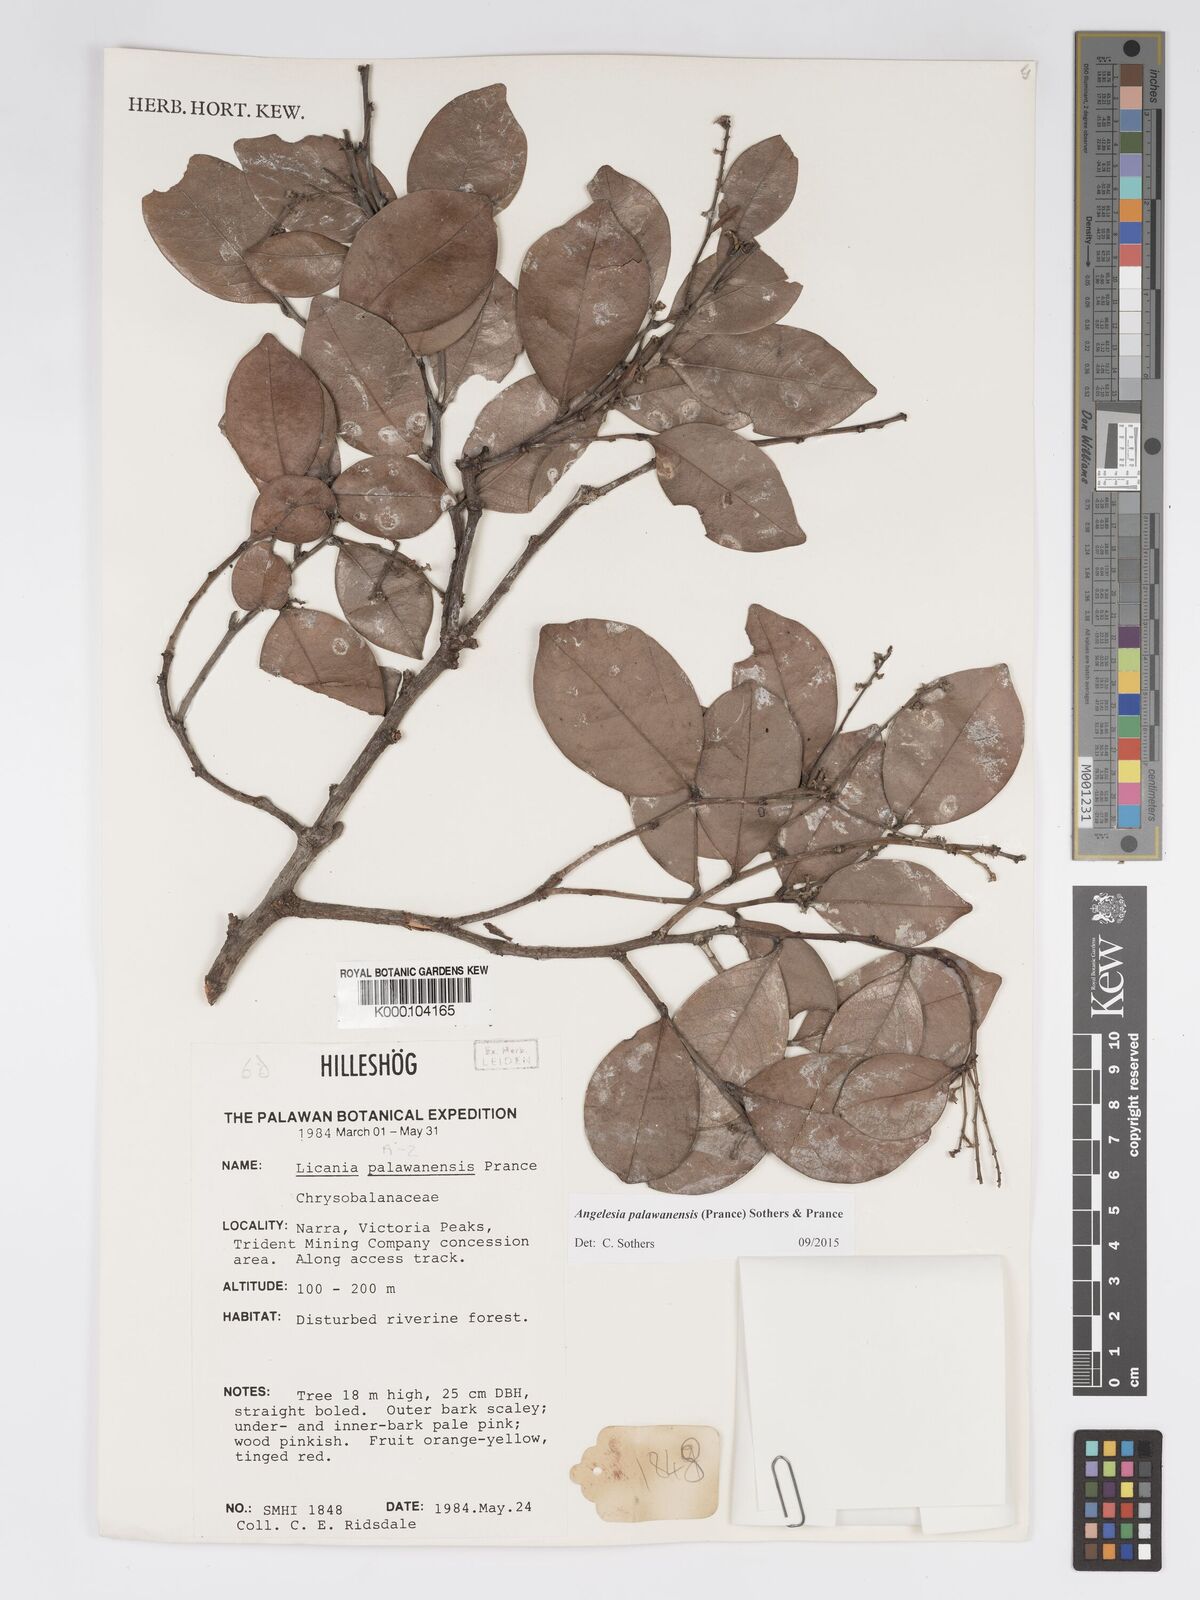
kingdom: Plantae
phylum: Tracheophyta
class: Magnoliopsida
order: Malpighiales
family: Chrysobalanaceae
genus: Angelesia
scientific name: Angelesia palawanensis
